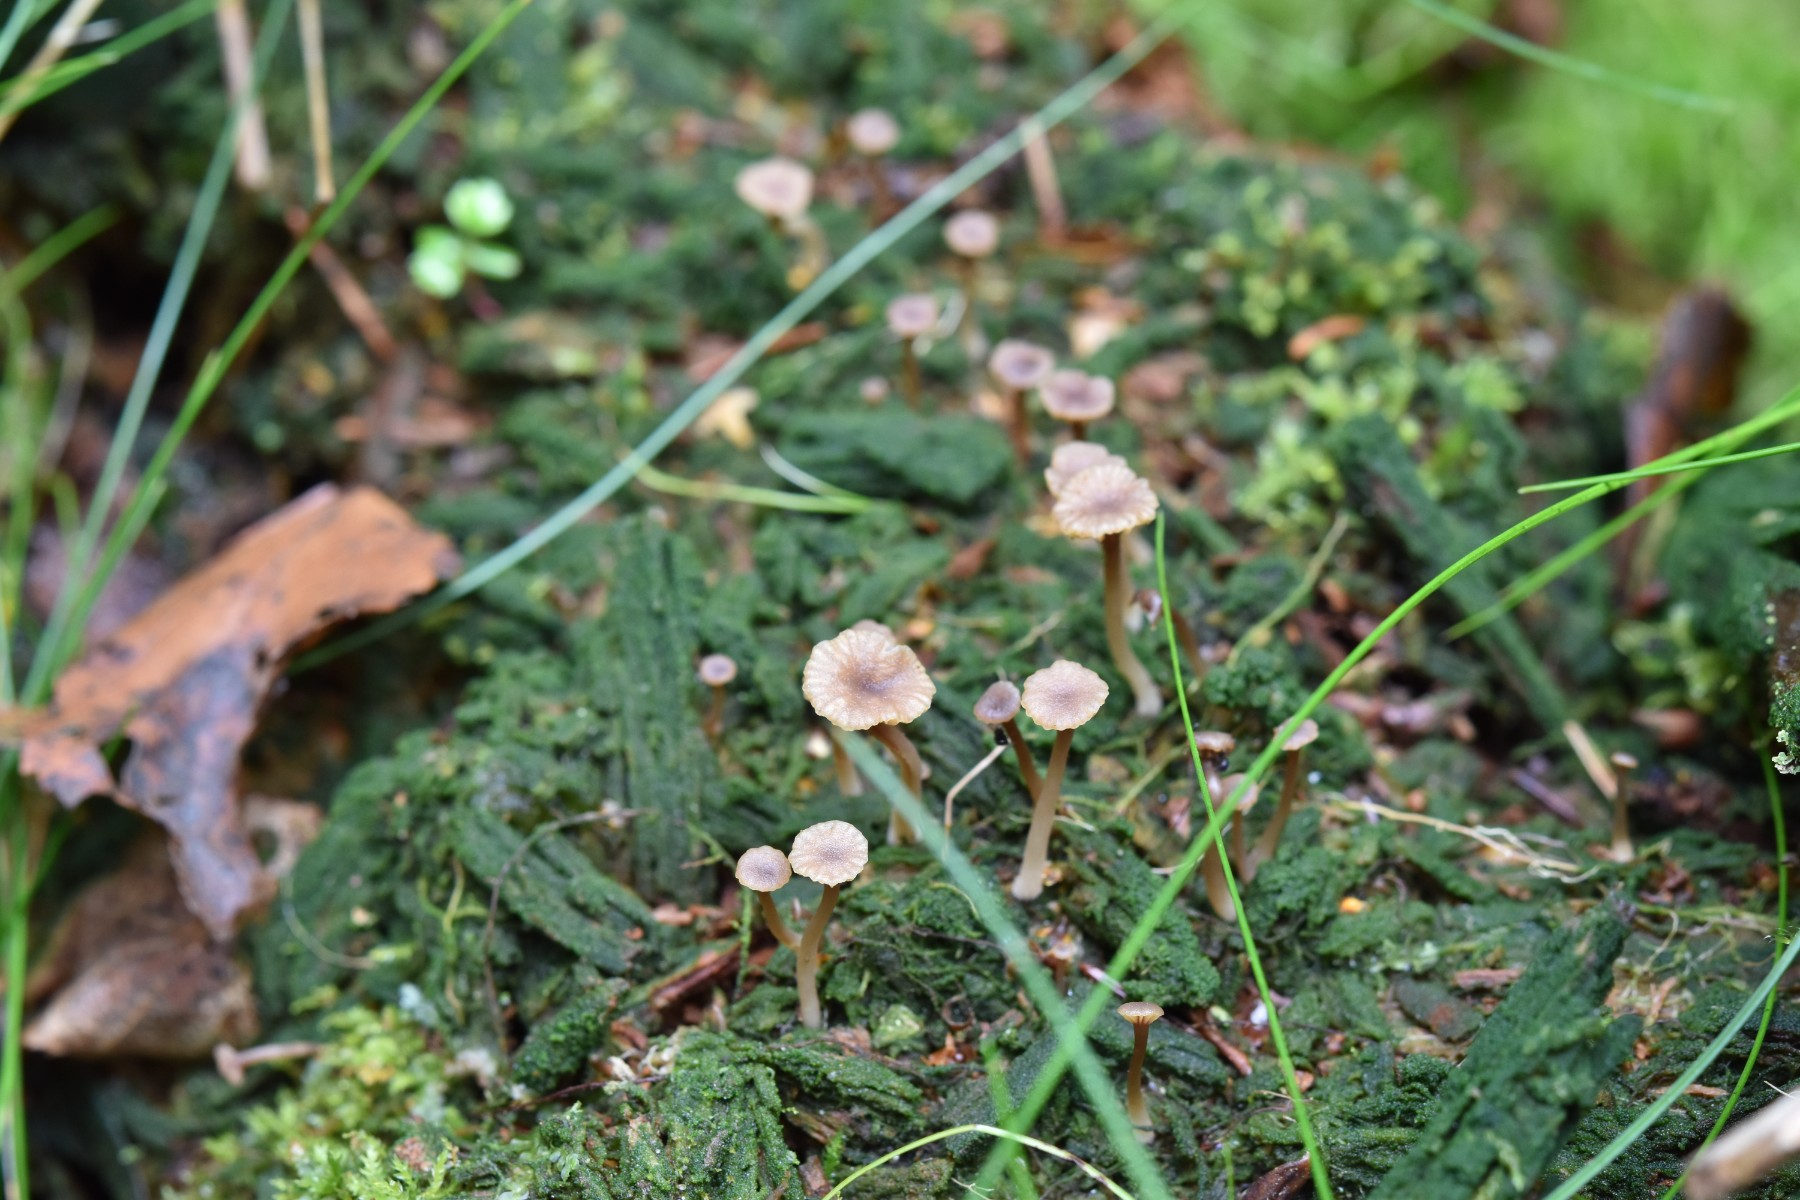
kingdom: Fungi
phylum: Basidiomycota
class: Agaricomycetes
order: Agaricales
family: Hygrophoraceae
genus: Lichenomphalia
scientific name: Lichenomphalia umbellifera
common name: tørve-lavhat
